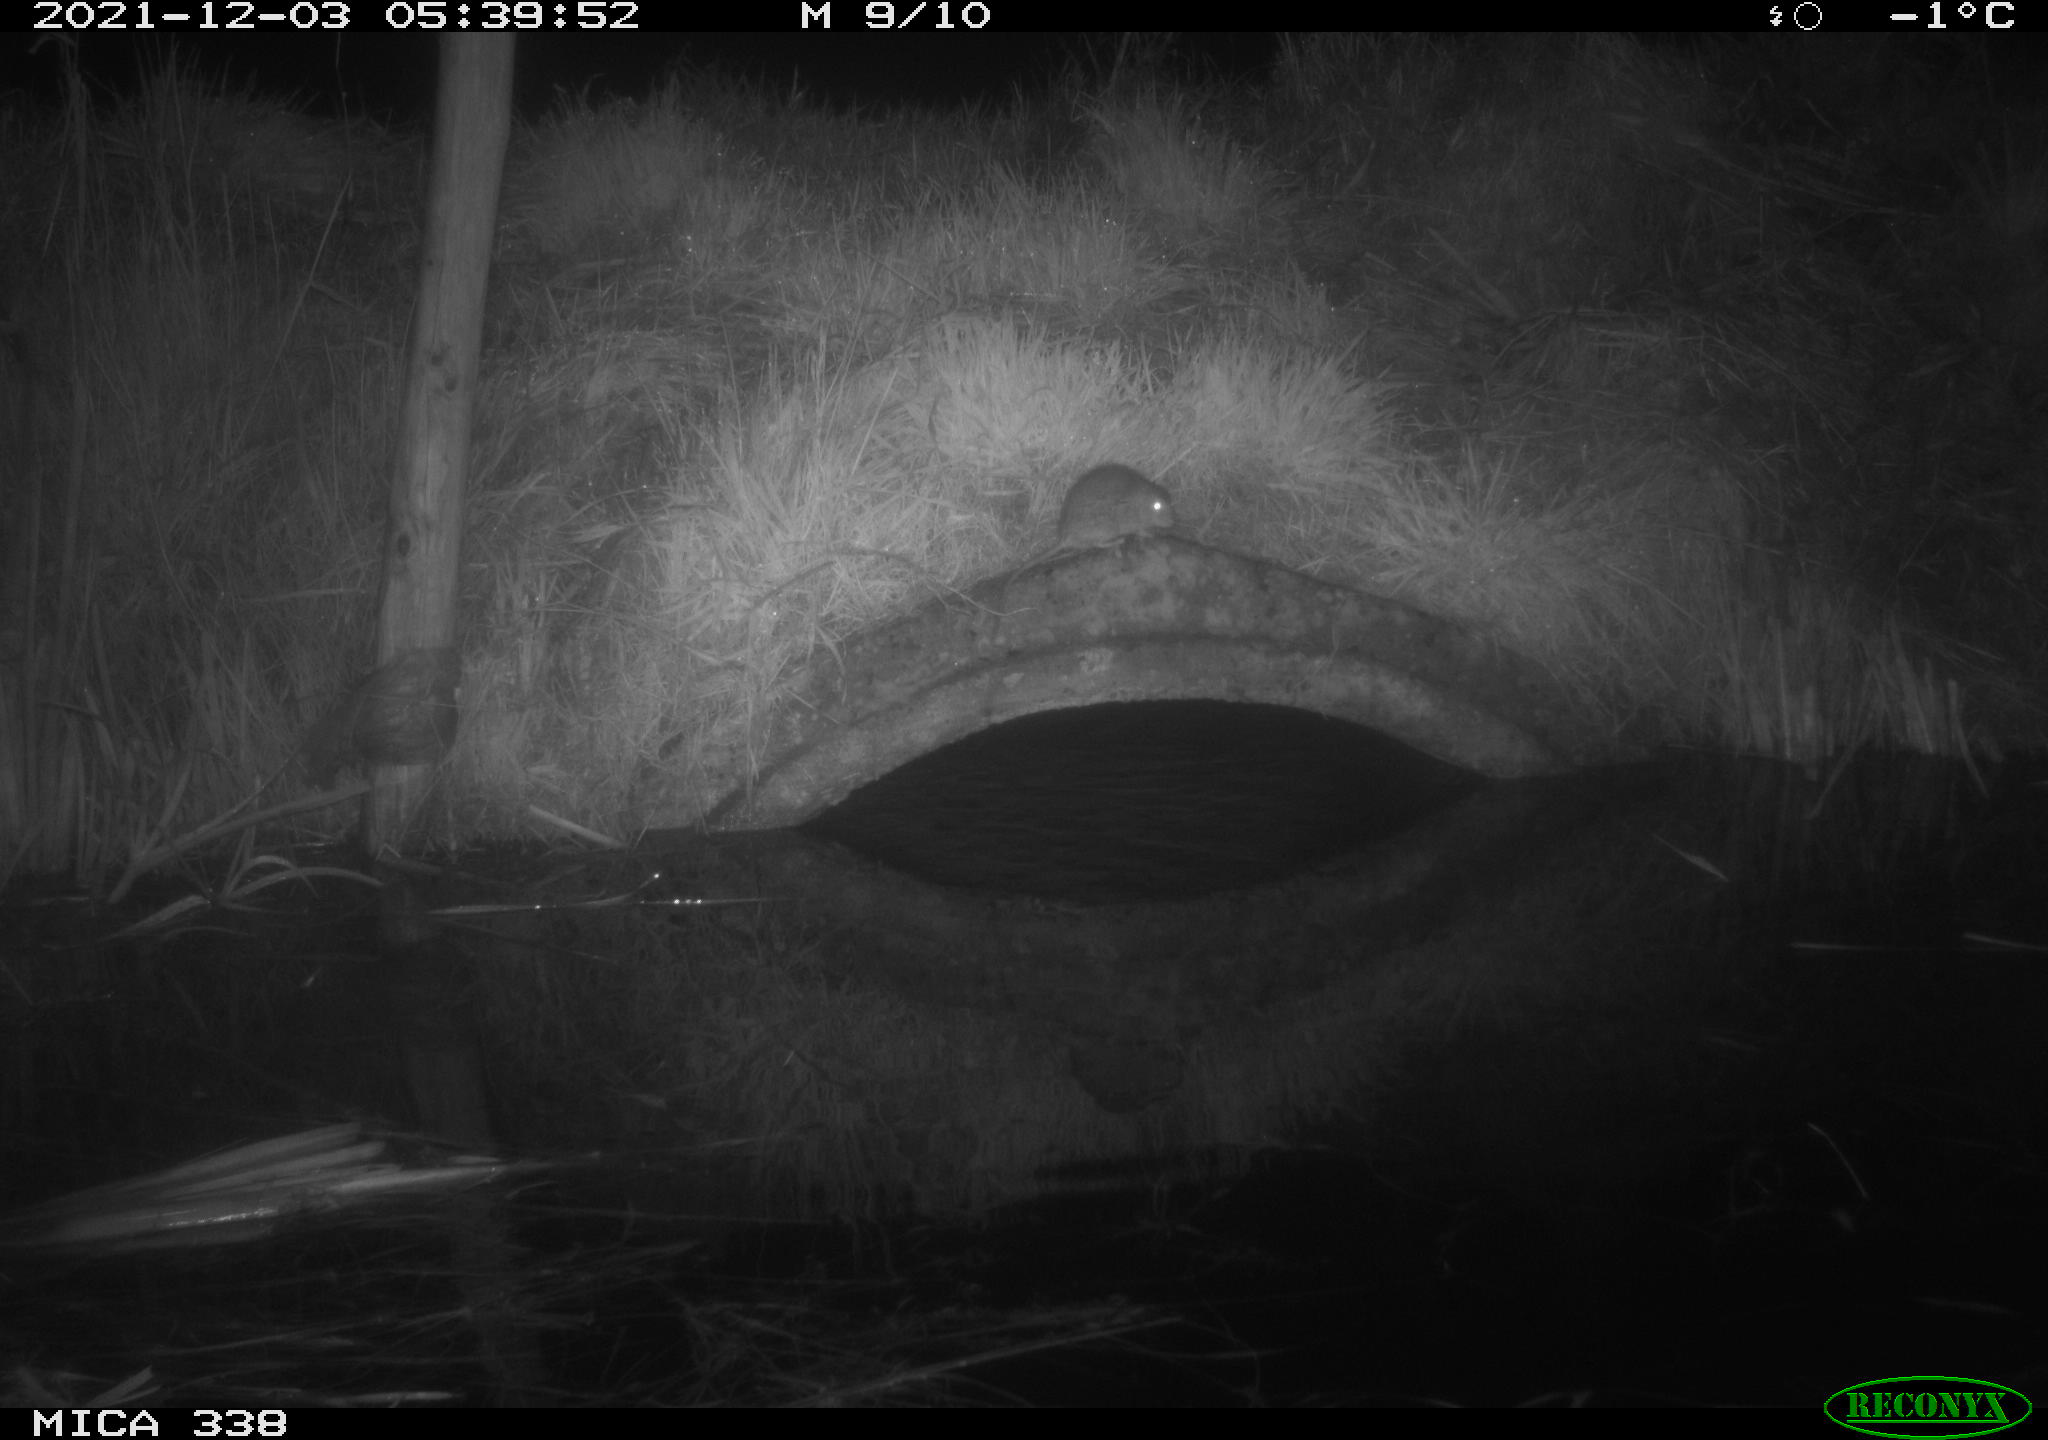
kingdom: Animalia
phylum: Chordata
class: Mammalia
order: Rodentia
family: Muridae
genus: Rattus
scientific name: Rattus norvegicus
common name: Brown rat
